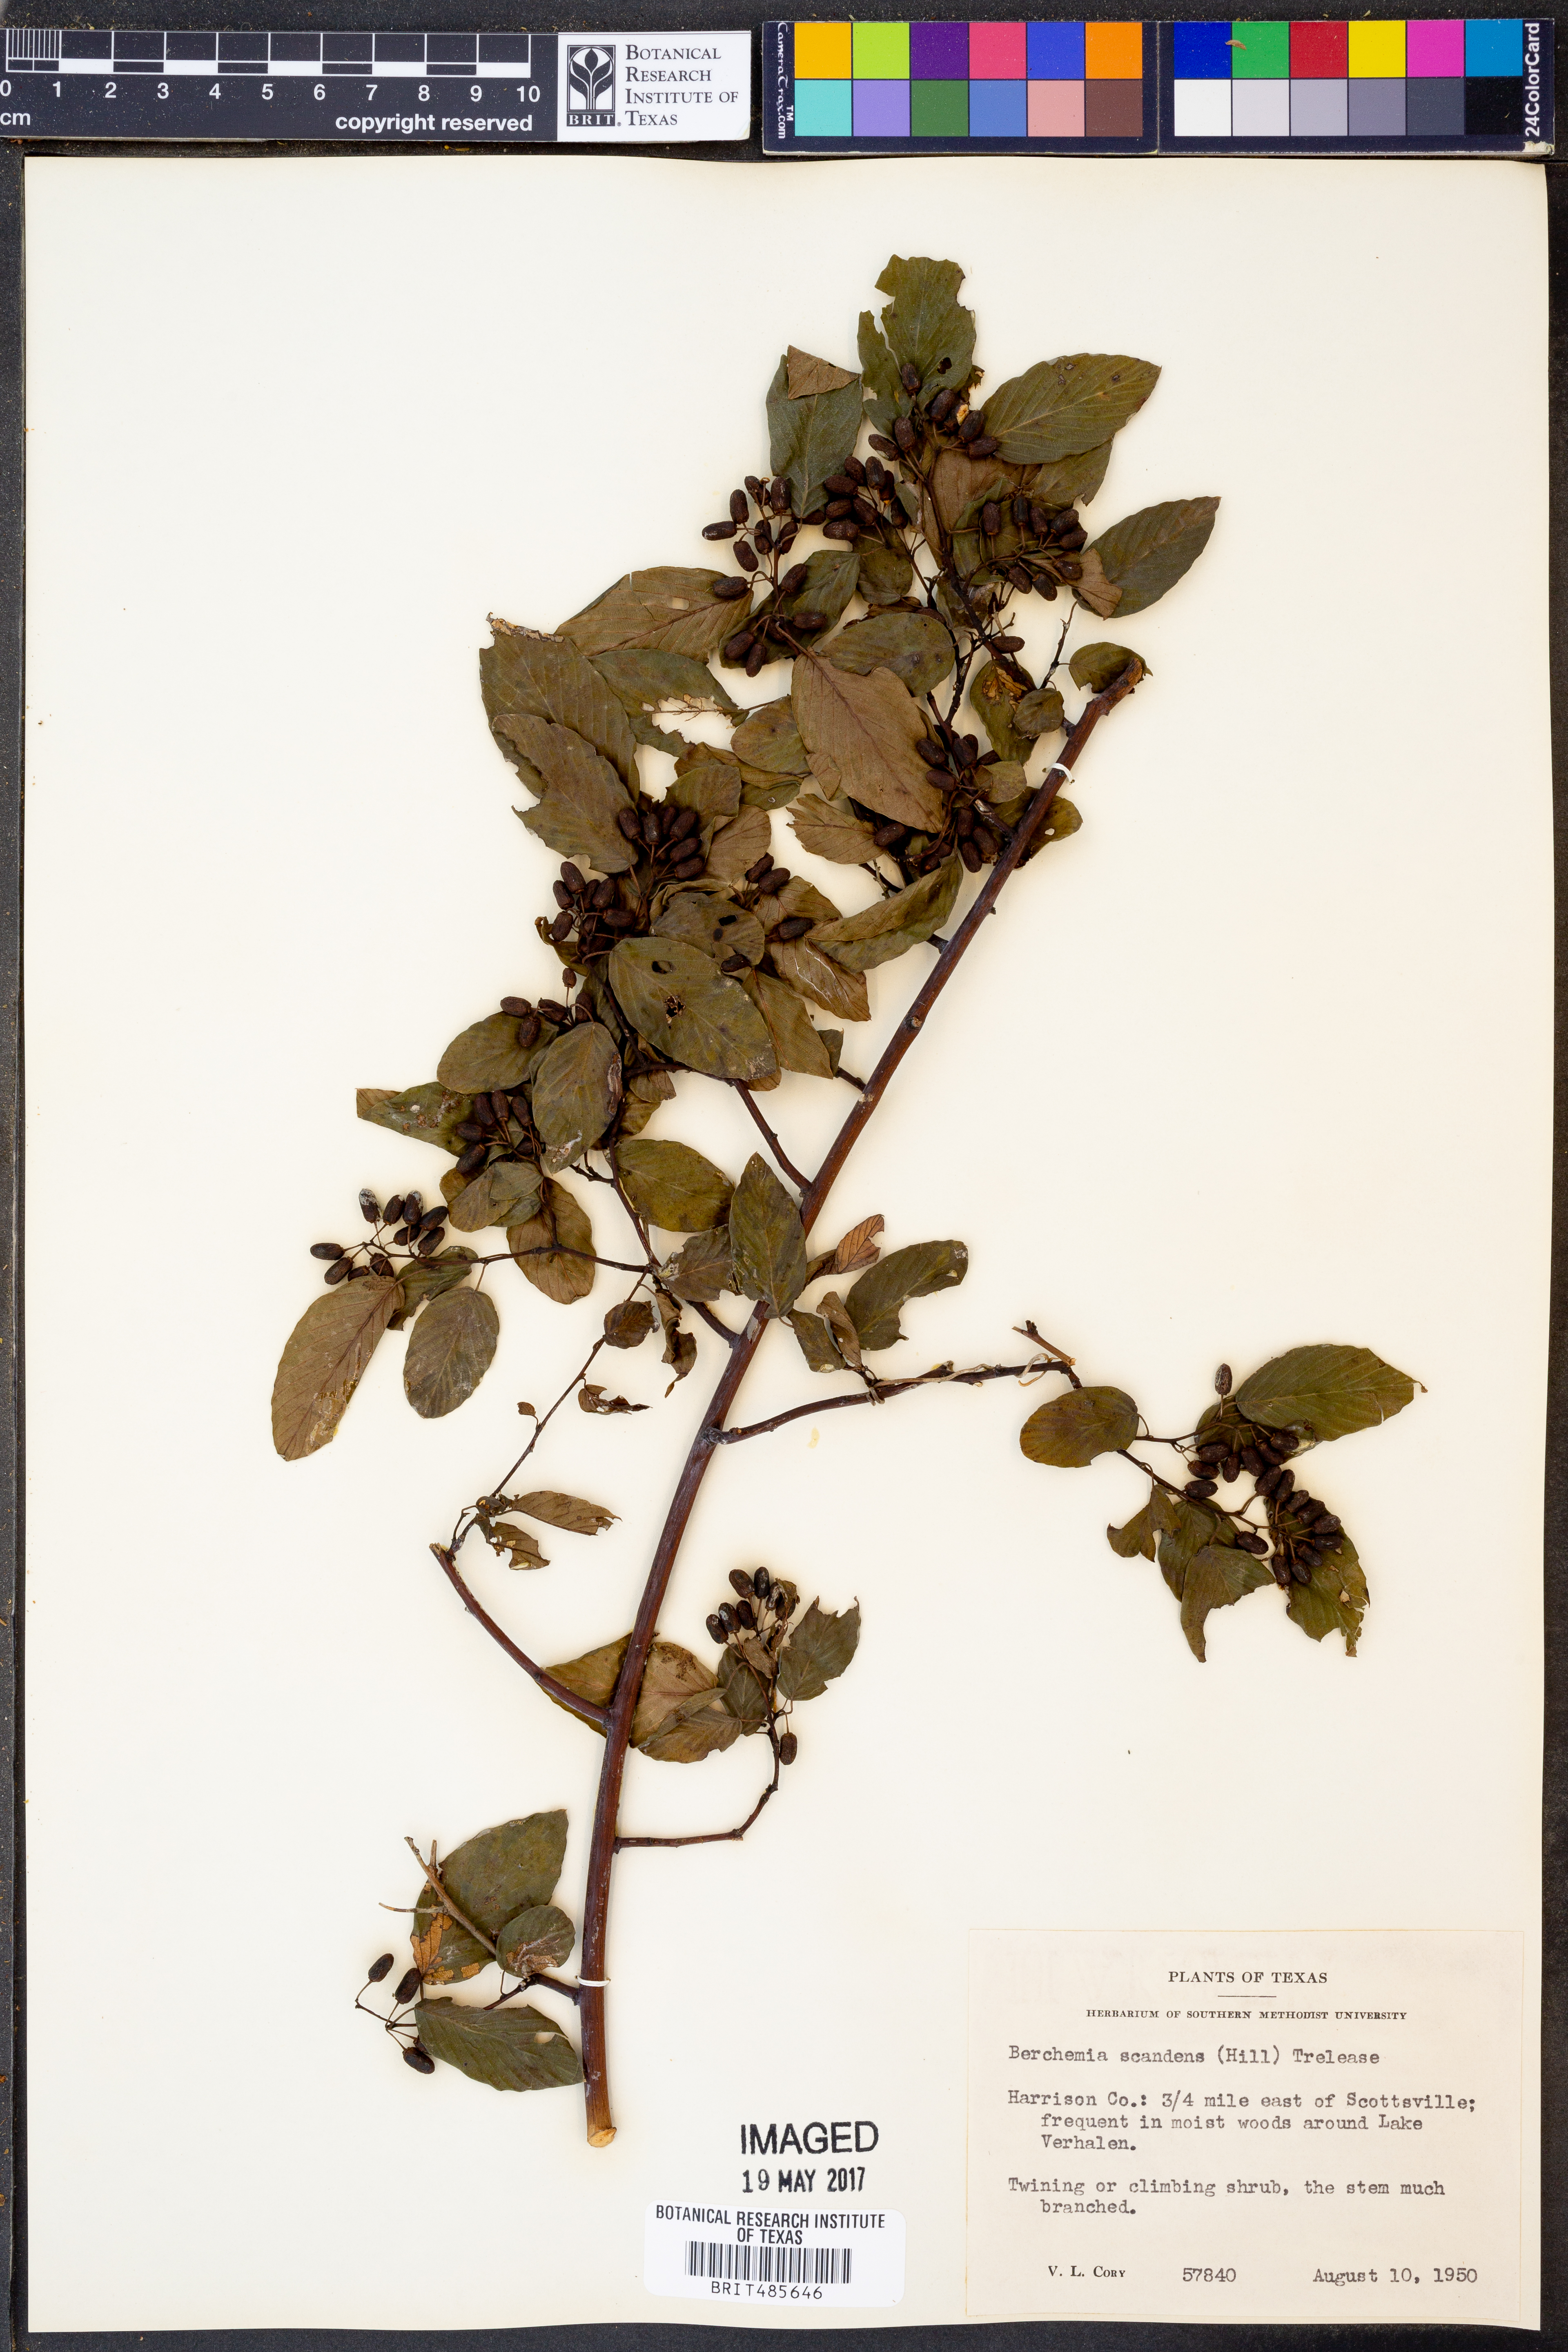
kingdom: Plantae
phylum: Tracheophyta
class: Magnoliopsida
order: Rosales
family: Rhamnaceae
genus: Berchemia
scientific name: Berchemia scandens
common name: Supplejack
